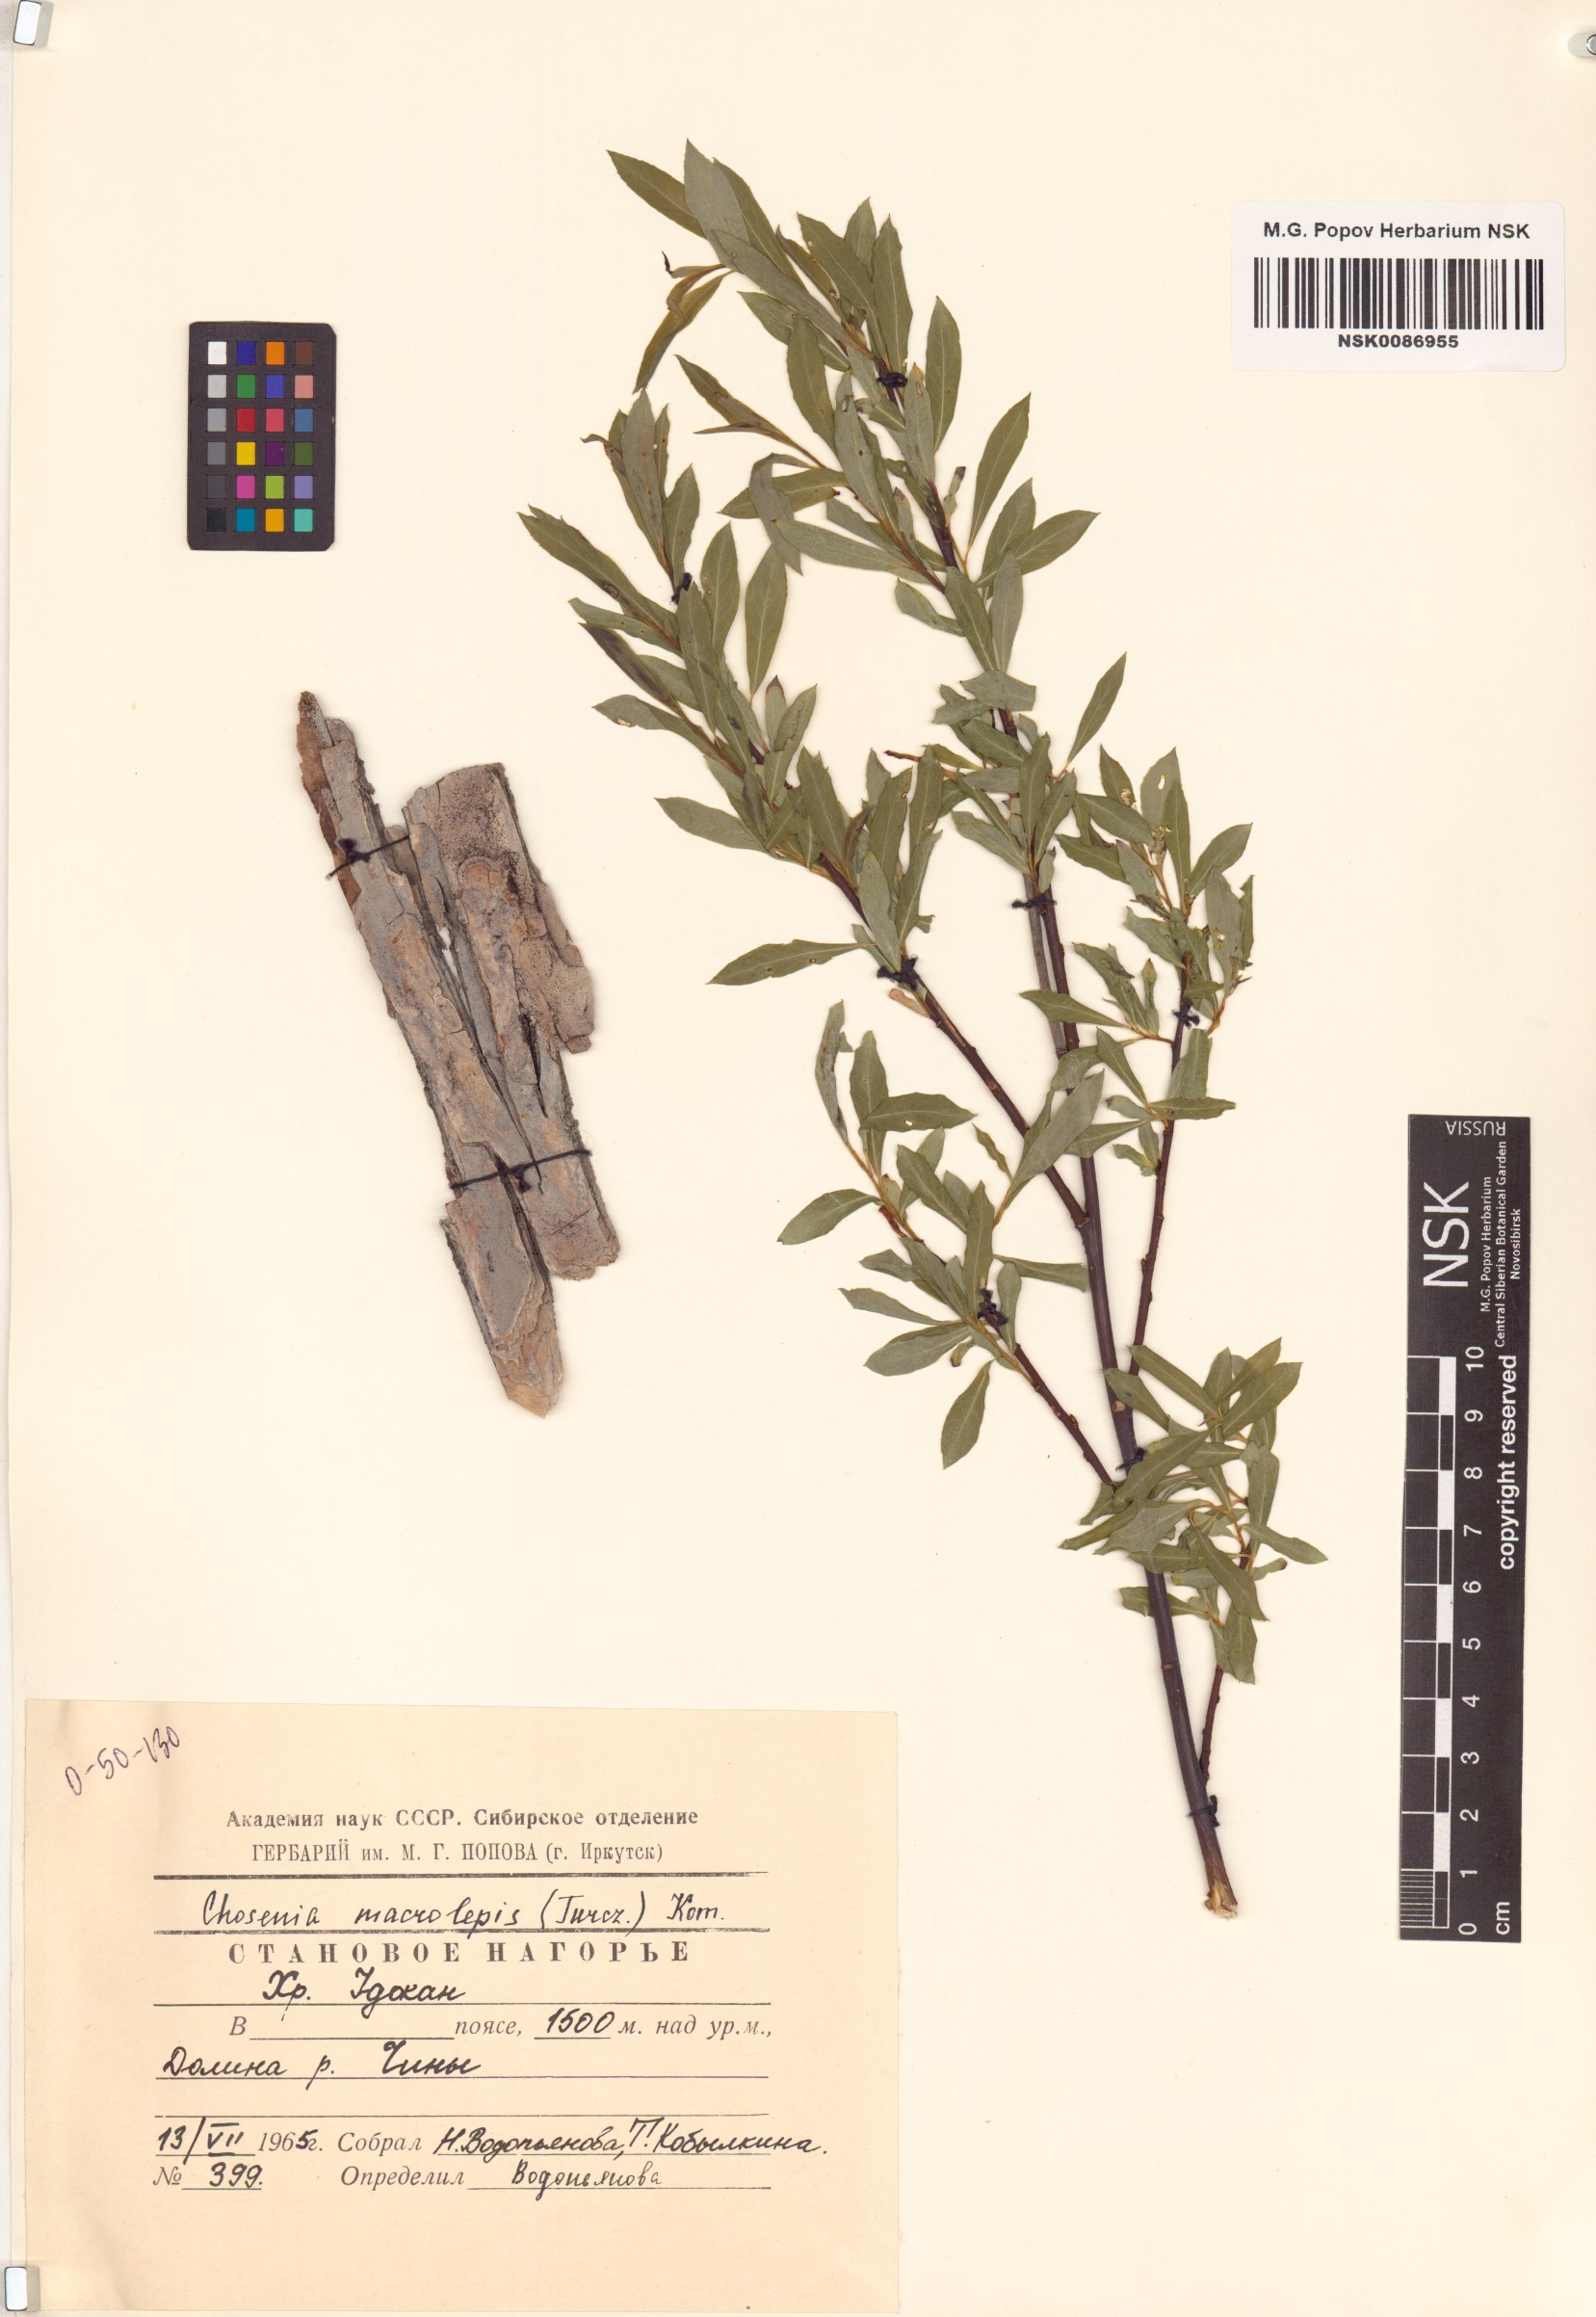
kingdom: Plantae
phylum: Tracheophyta
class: Magnoliopsida
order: Malpighiales
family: Salicaceae
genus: Chosenia
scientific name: Chosenia arbutifolia
